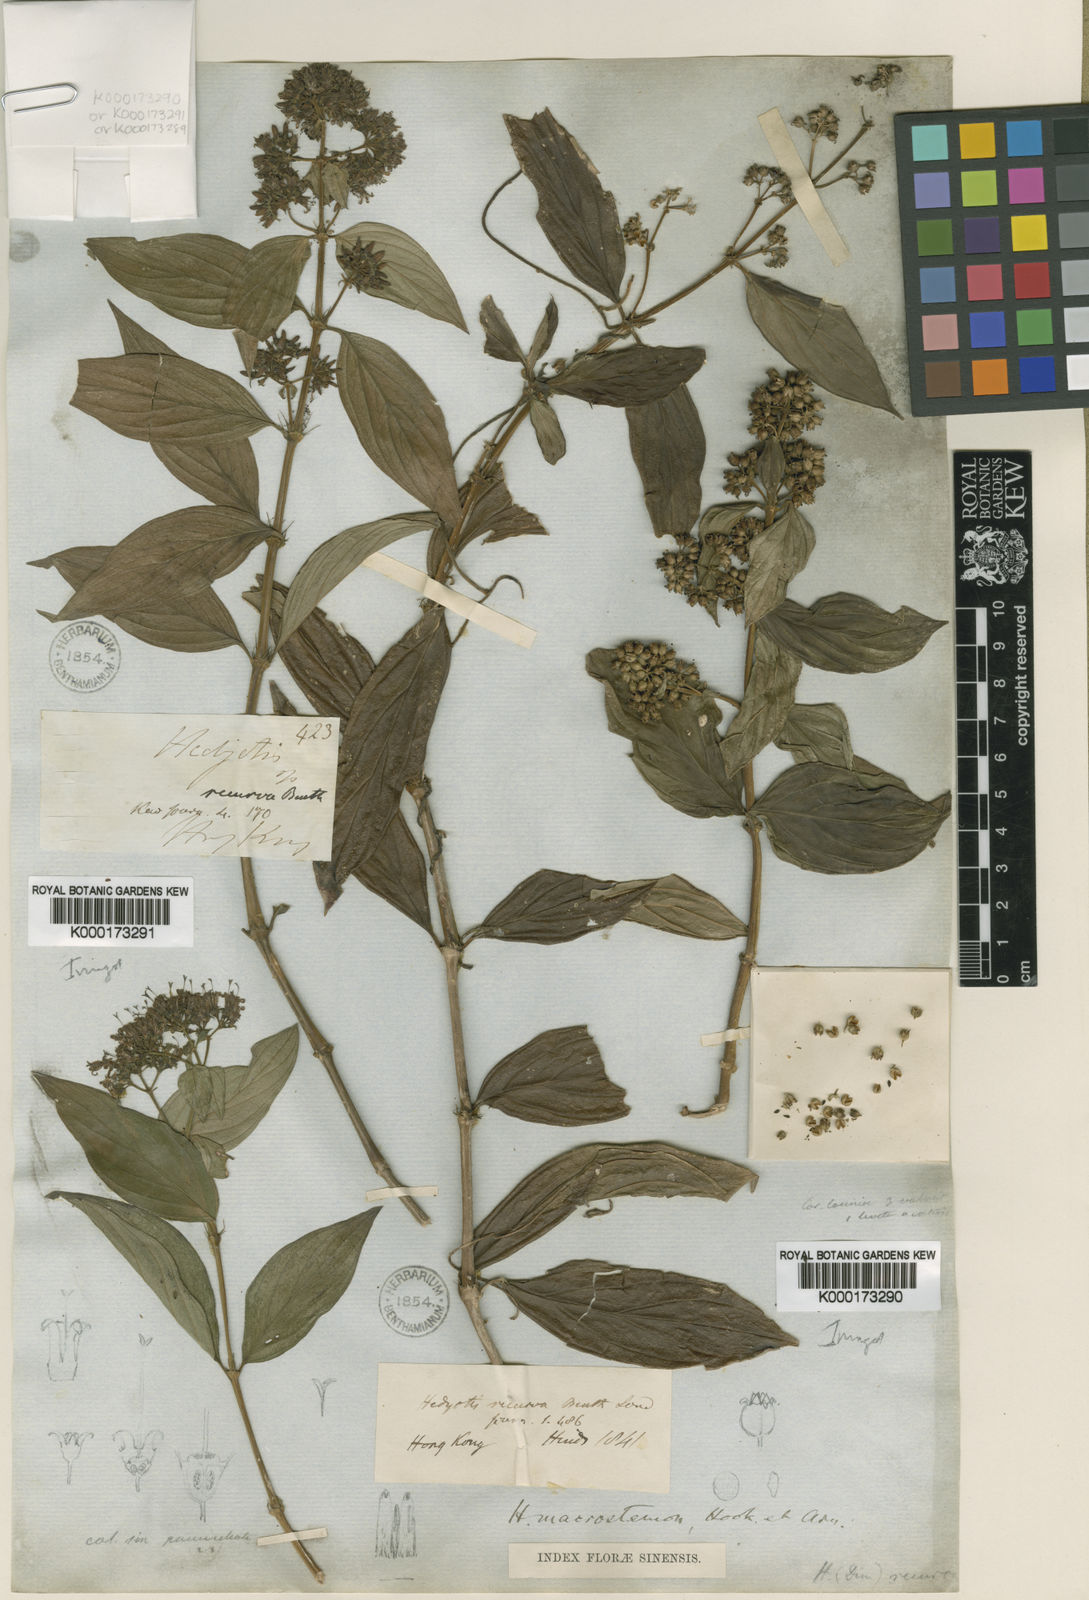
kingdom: Plantae
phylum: Tracheophyta
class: Magnoliopsida
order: Gentianales
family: Rubiaceae
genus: Dimetia
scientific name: Dimetia hedyotidea
